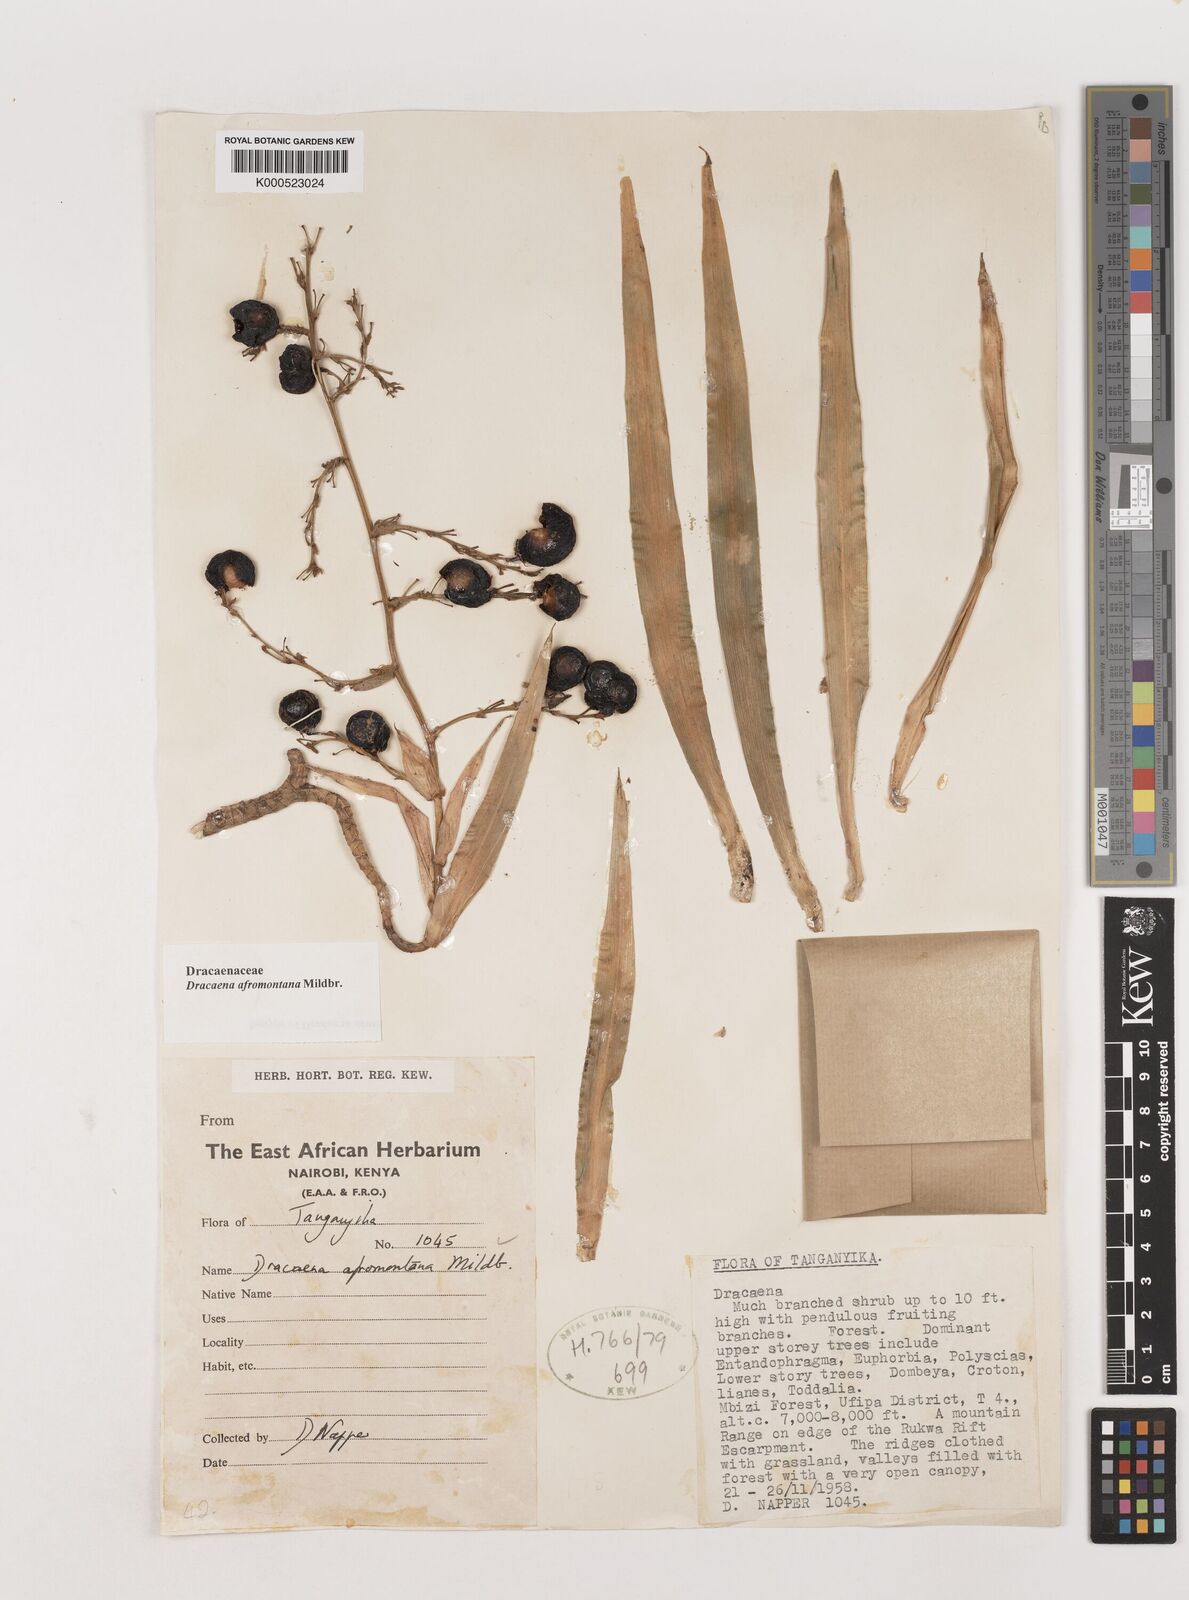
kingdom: Plantae
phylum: Tracheophyta
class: Liliopsida
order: Asparagales
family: Asparagaceae
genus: Dracaena
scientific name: Dracaena afromontana
